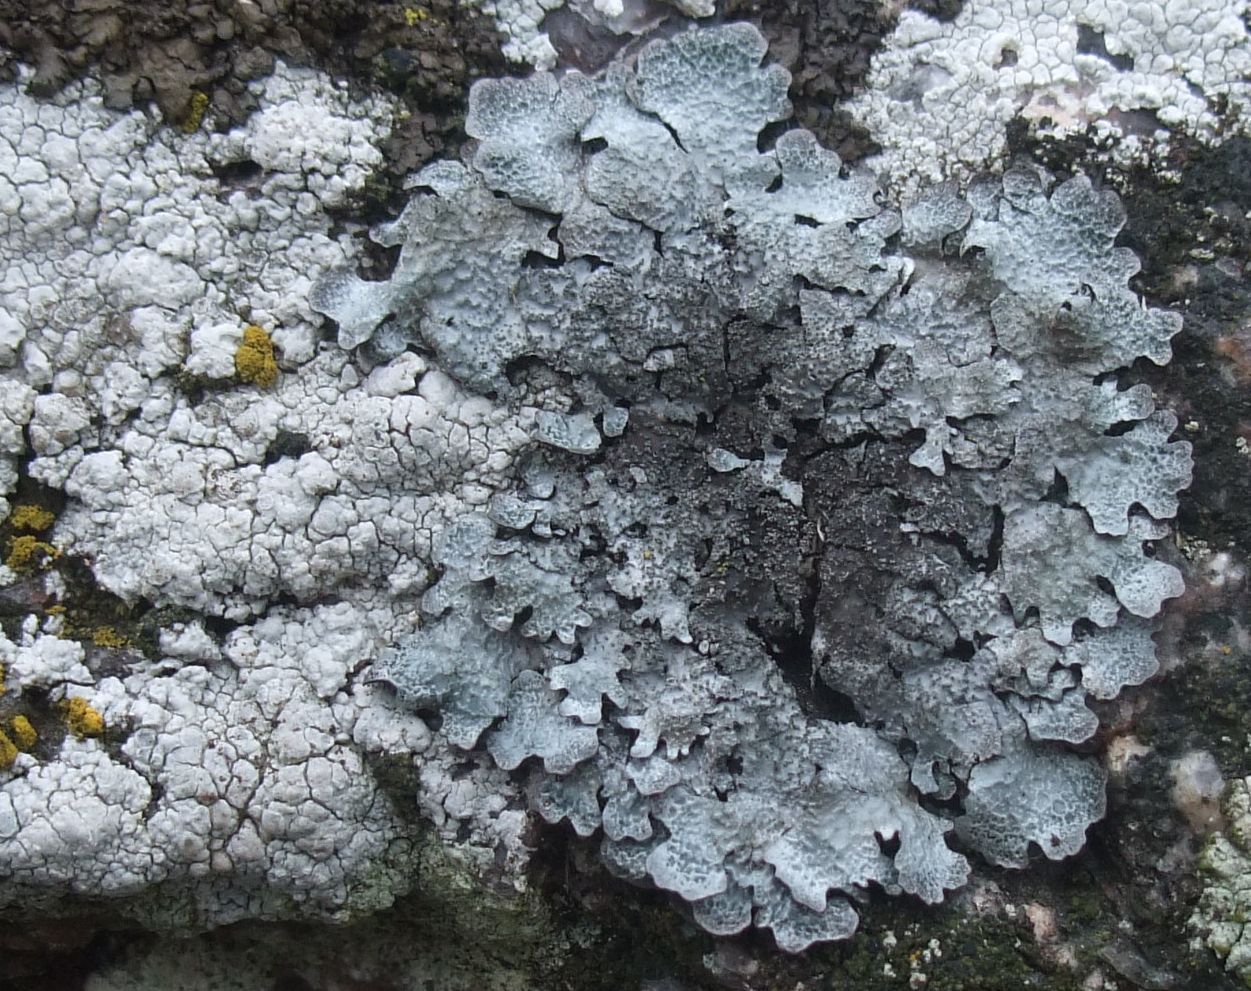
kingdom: Fungi
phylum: Ascomycota
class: Lecanoromycetes
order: Lecanorales
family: Parmeliaceae
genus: Parmelia
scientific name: Parmelia saxatilis
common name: farve-skållav
